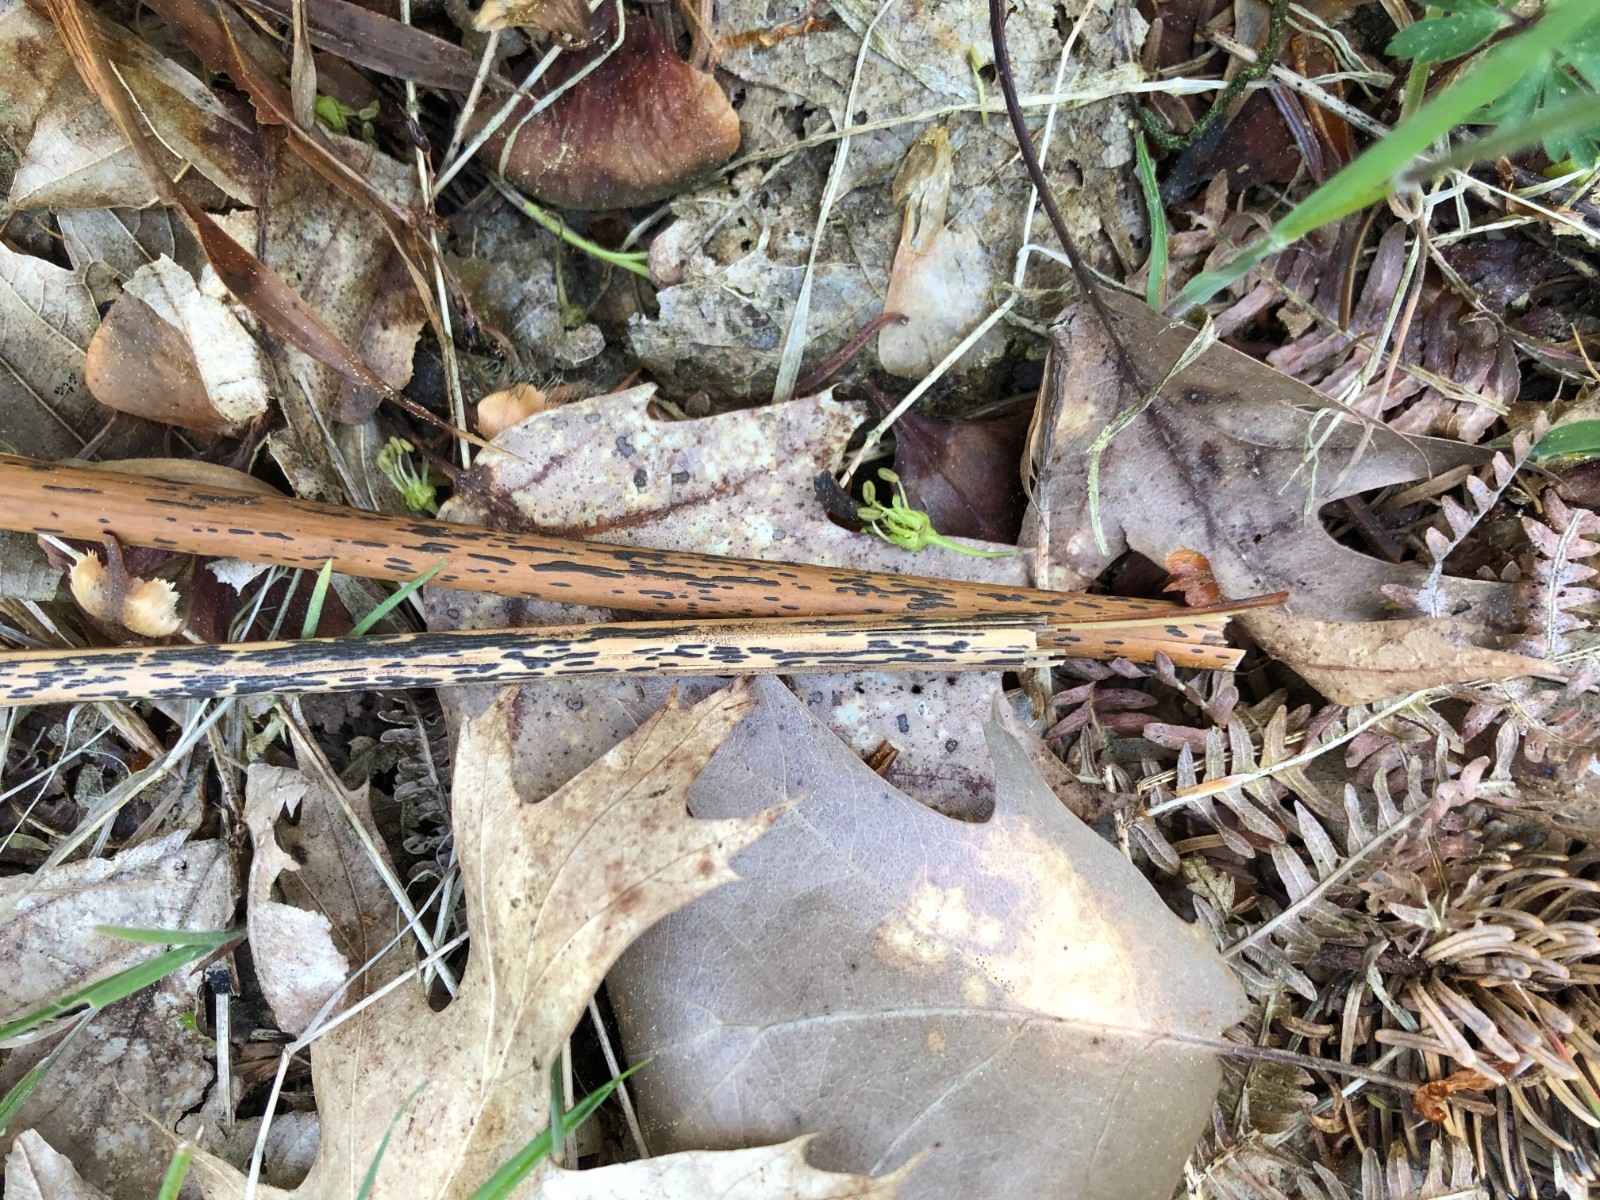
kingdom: Fungi
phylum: Ascomycota
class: Dothideomycetes
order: Pleosporales
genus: Rhopographus
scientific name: Rhopographus filicinus
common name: Bracken map
